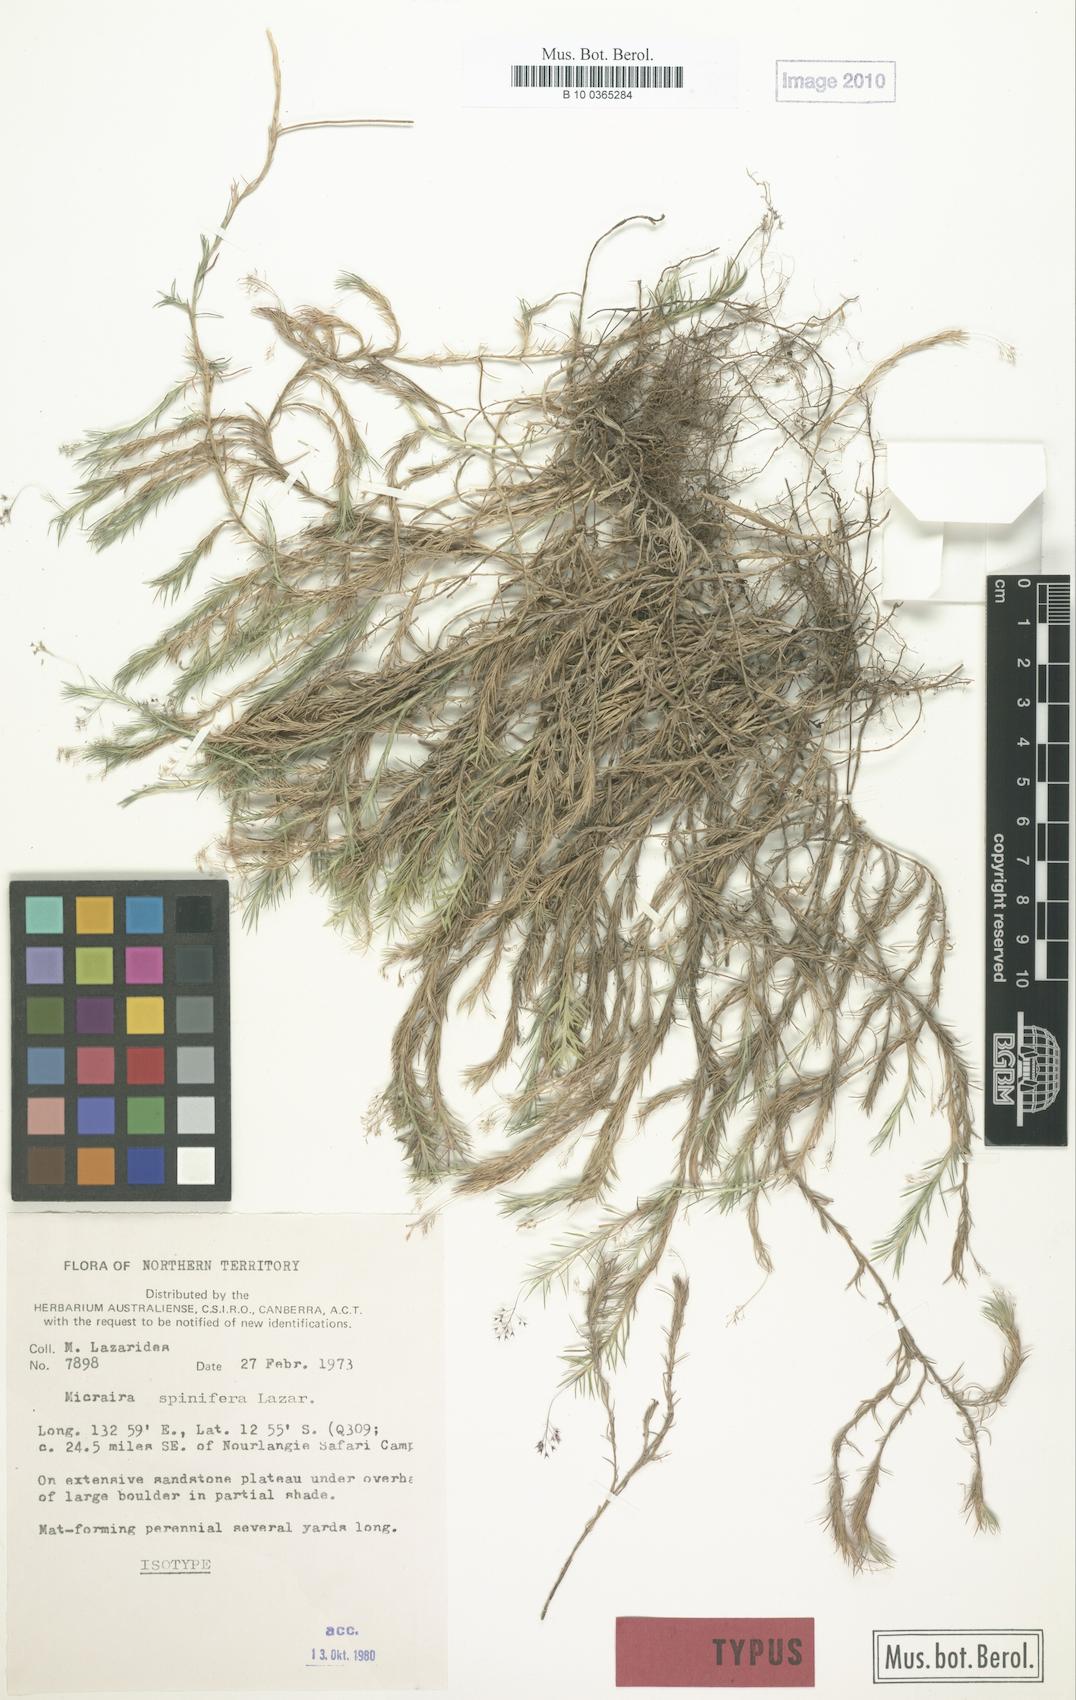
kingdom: Plantae
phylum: Tracheophyta
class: Liliopsida
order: Poales
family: Poaceae
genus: Micraira
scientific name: Micraira spinifera
